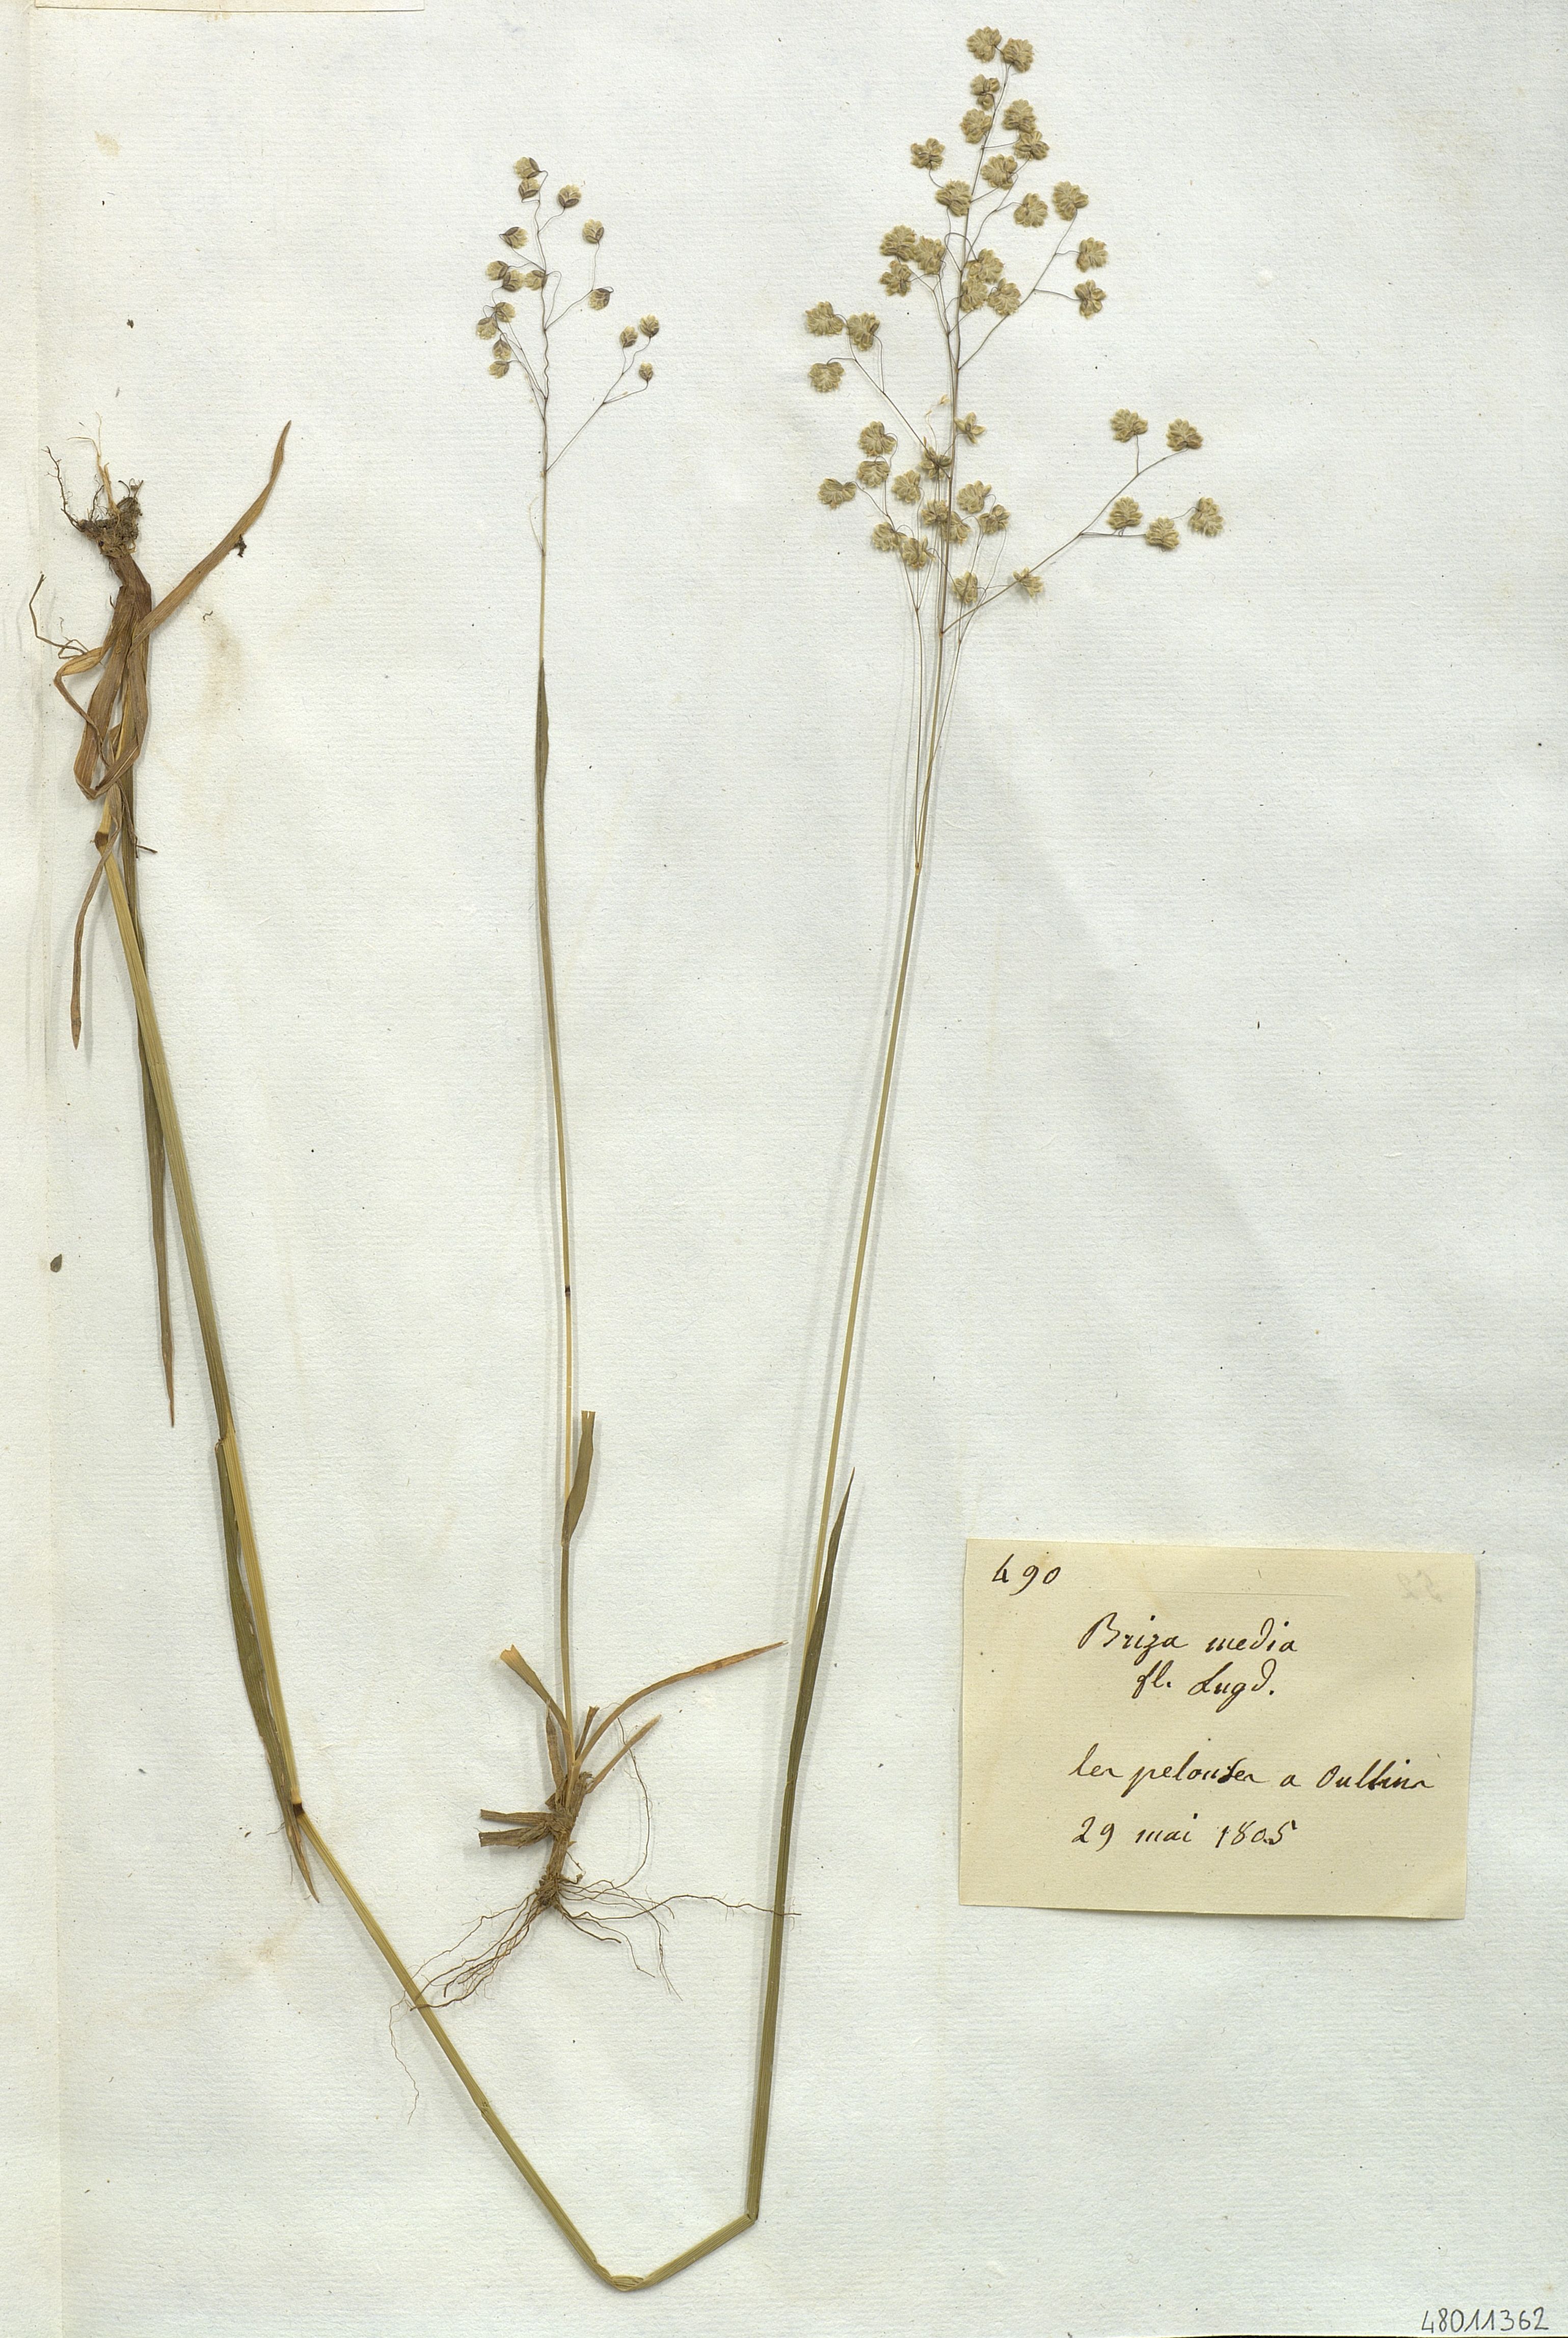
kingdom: Plantae
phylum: Tracheophyta
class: Liliopsida
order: Poales
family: Poaceae
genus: Briza
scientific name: Briza media
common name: Quaking grass
